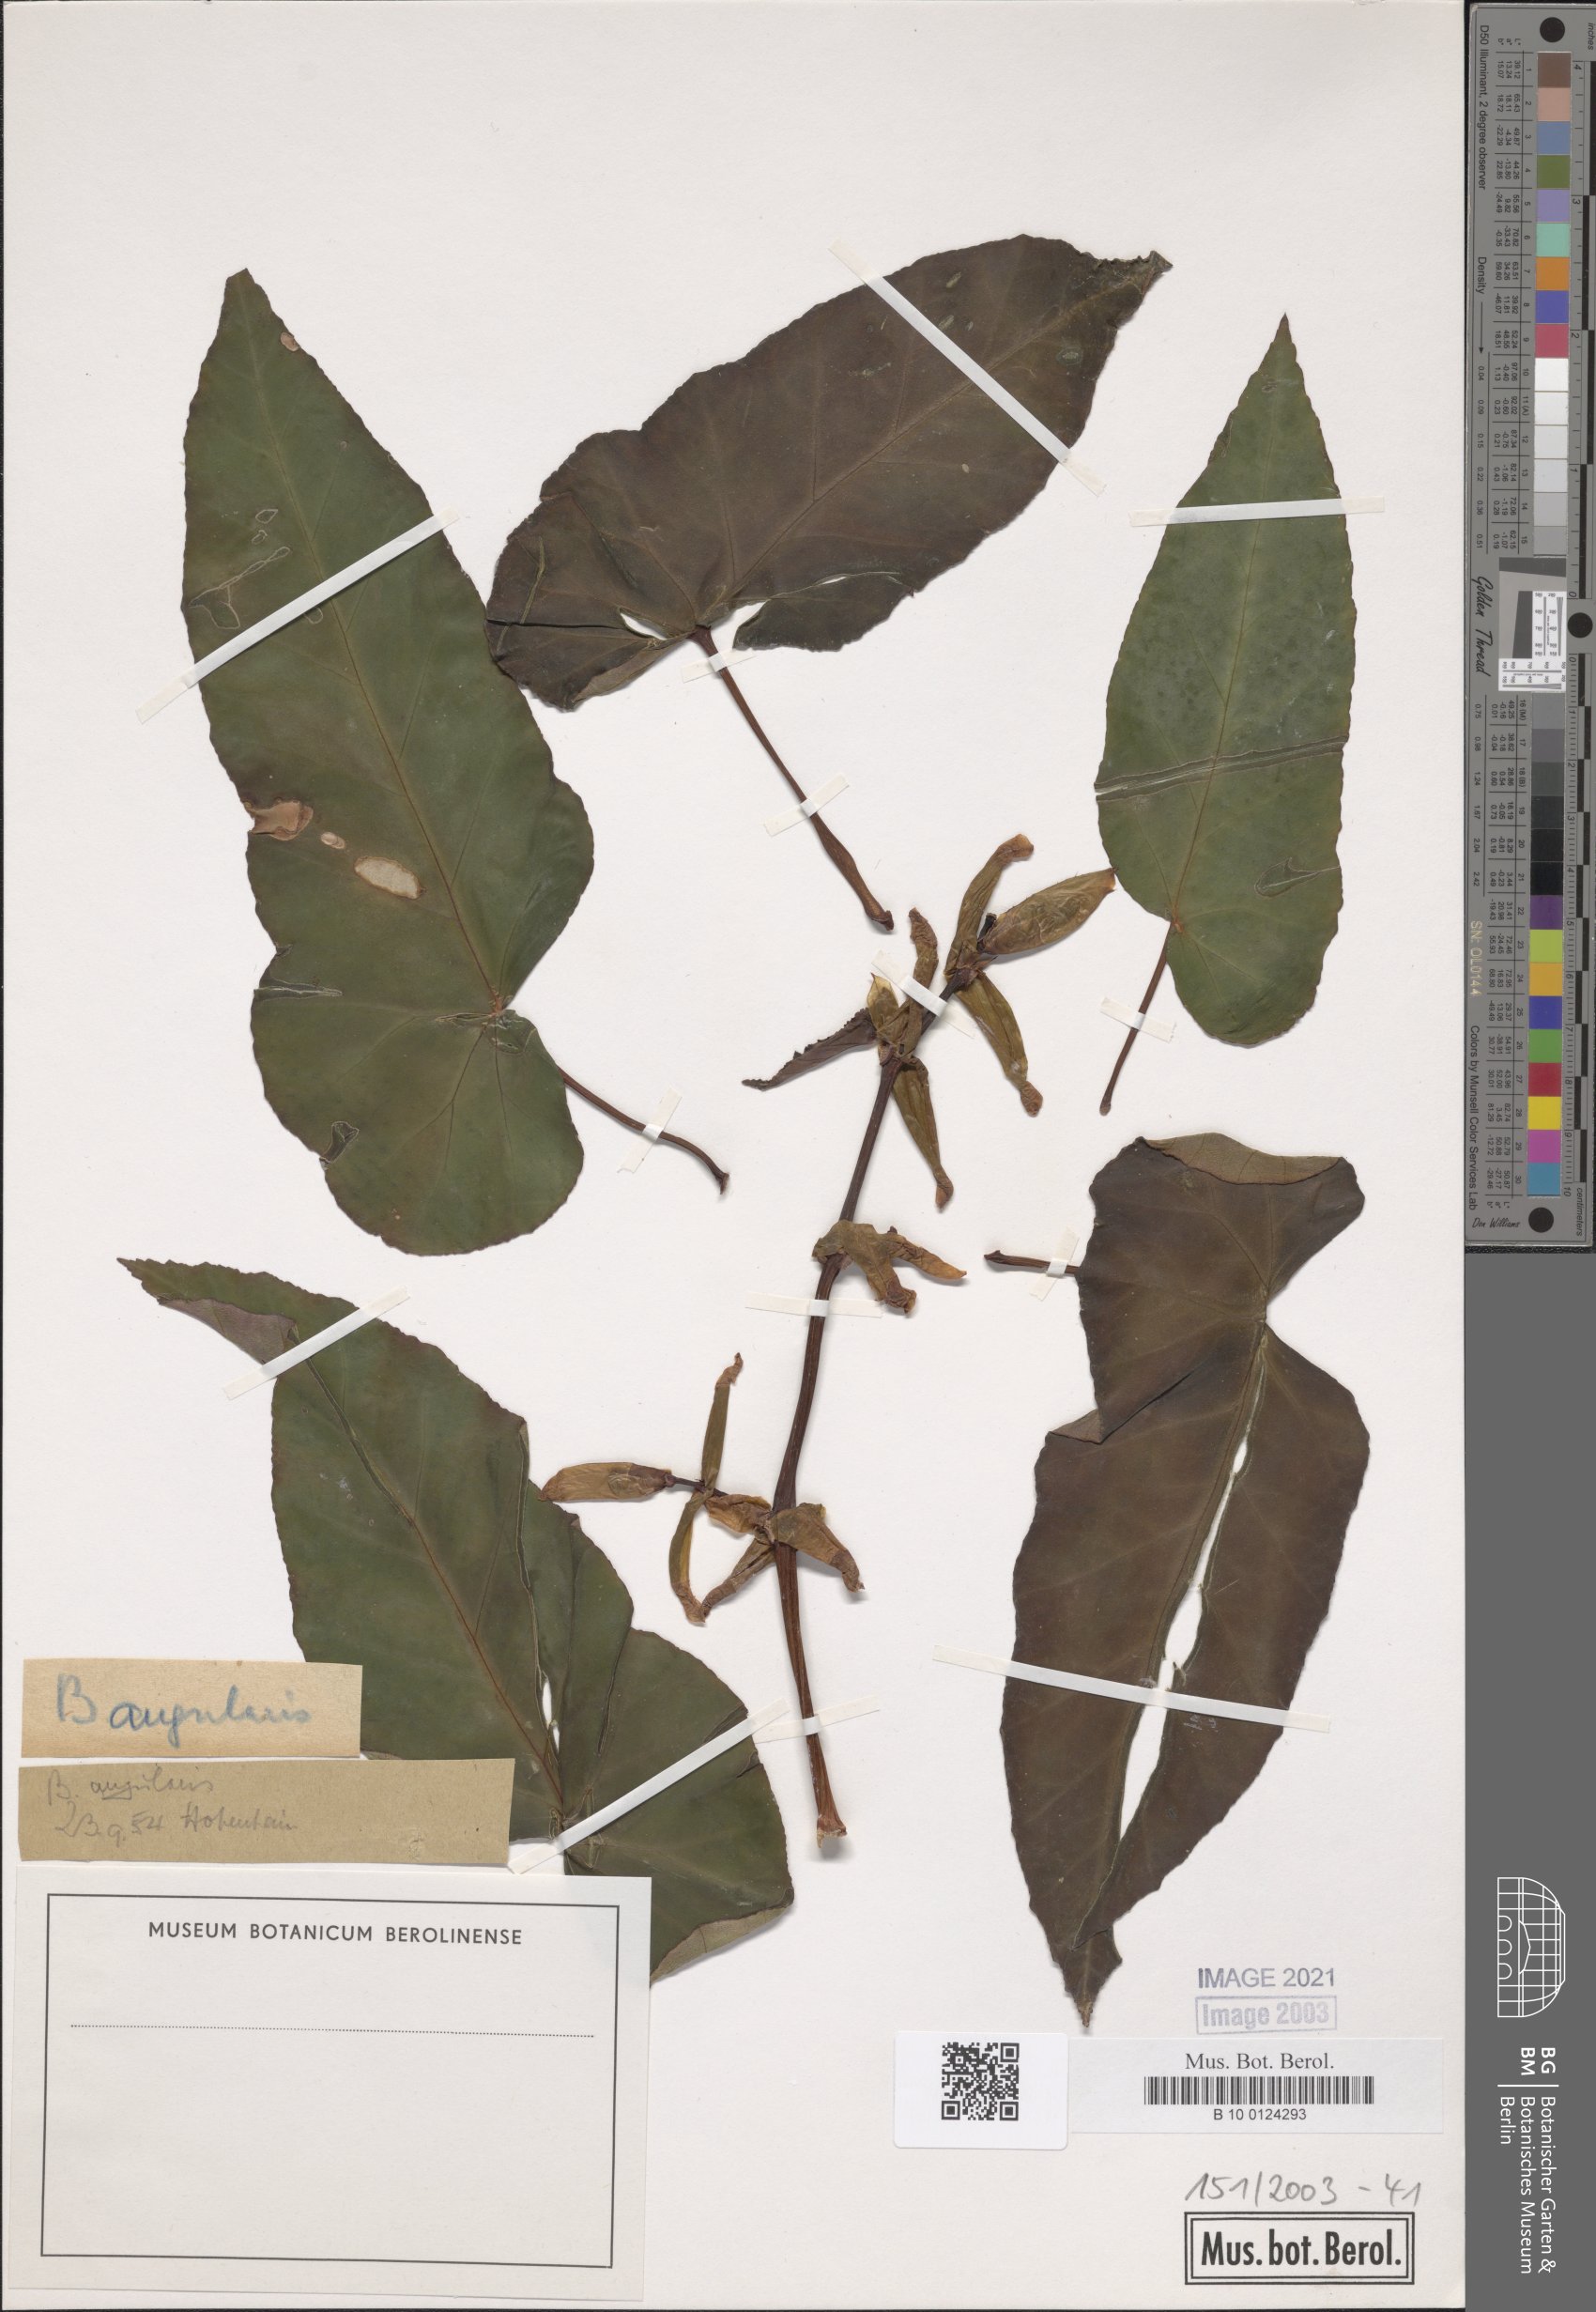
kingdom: Plantae
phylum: Tracheophyta
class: Magnoliopsida
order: Cucurbitales
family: Begoniaceae
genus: Begonia
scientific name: Begonia angularis
